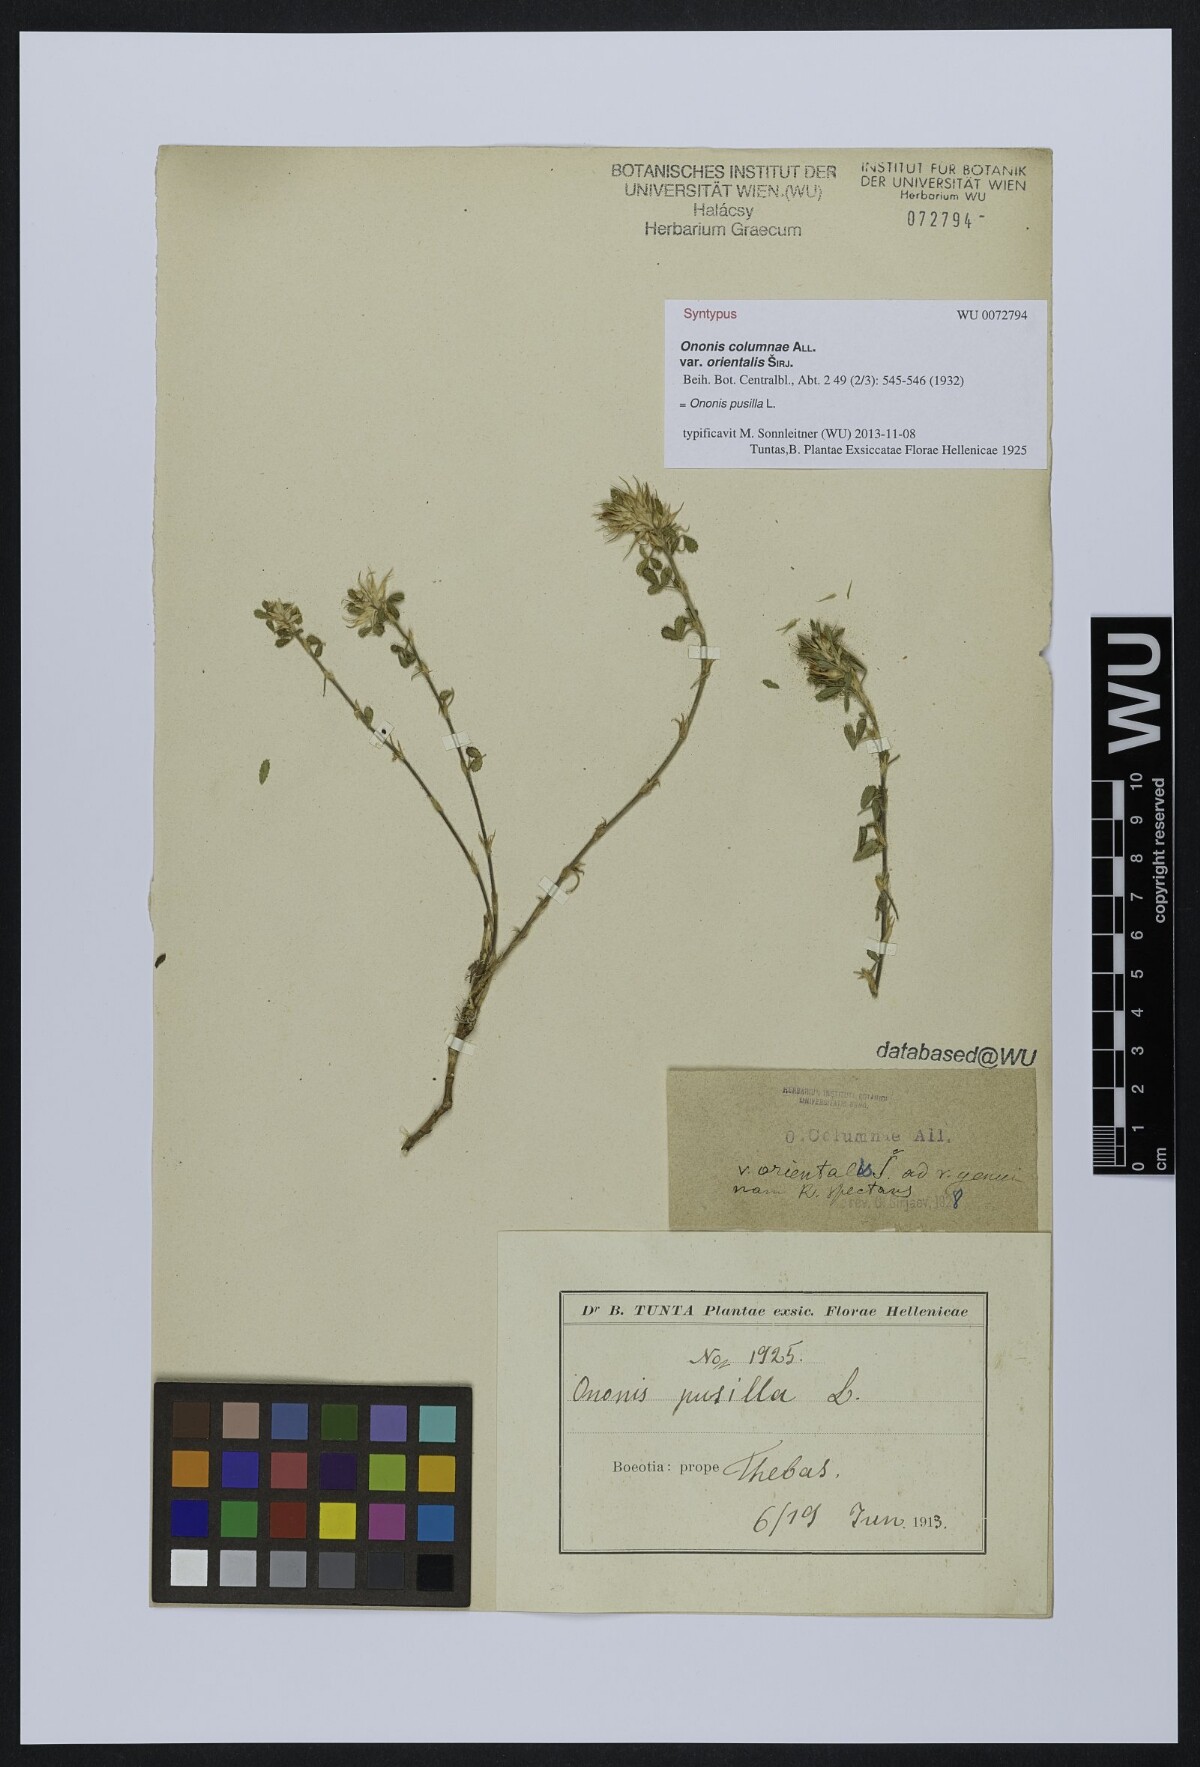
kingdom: Plantae
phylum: Tracheophyta
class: Magnoliopsida
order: Fabales
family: Fabaceae
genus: Ononis
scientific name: Ononis pusilla
